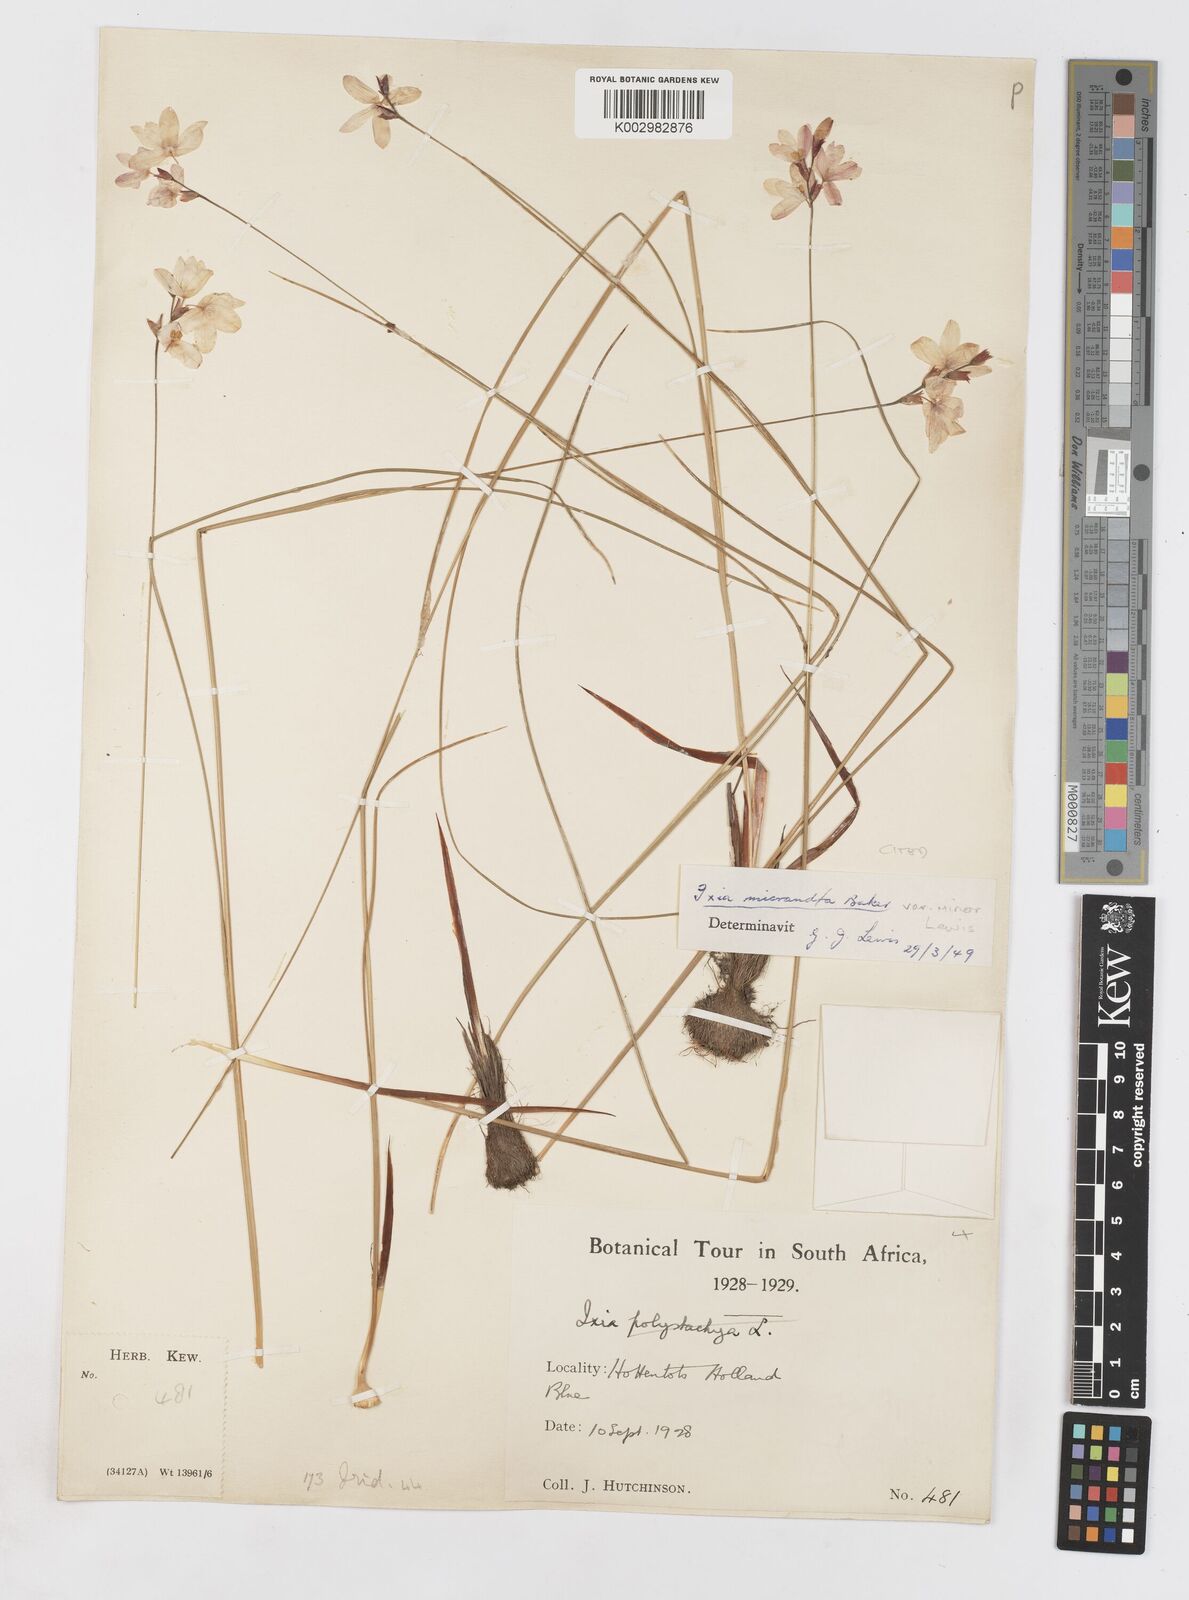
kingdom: Plantae
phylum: Tracheophyta
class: Liliopsida
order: Asparagales
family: Iridaceae
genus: Ixia
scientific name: Ixia minor
